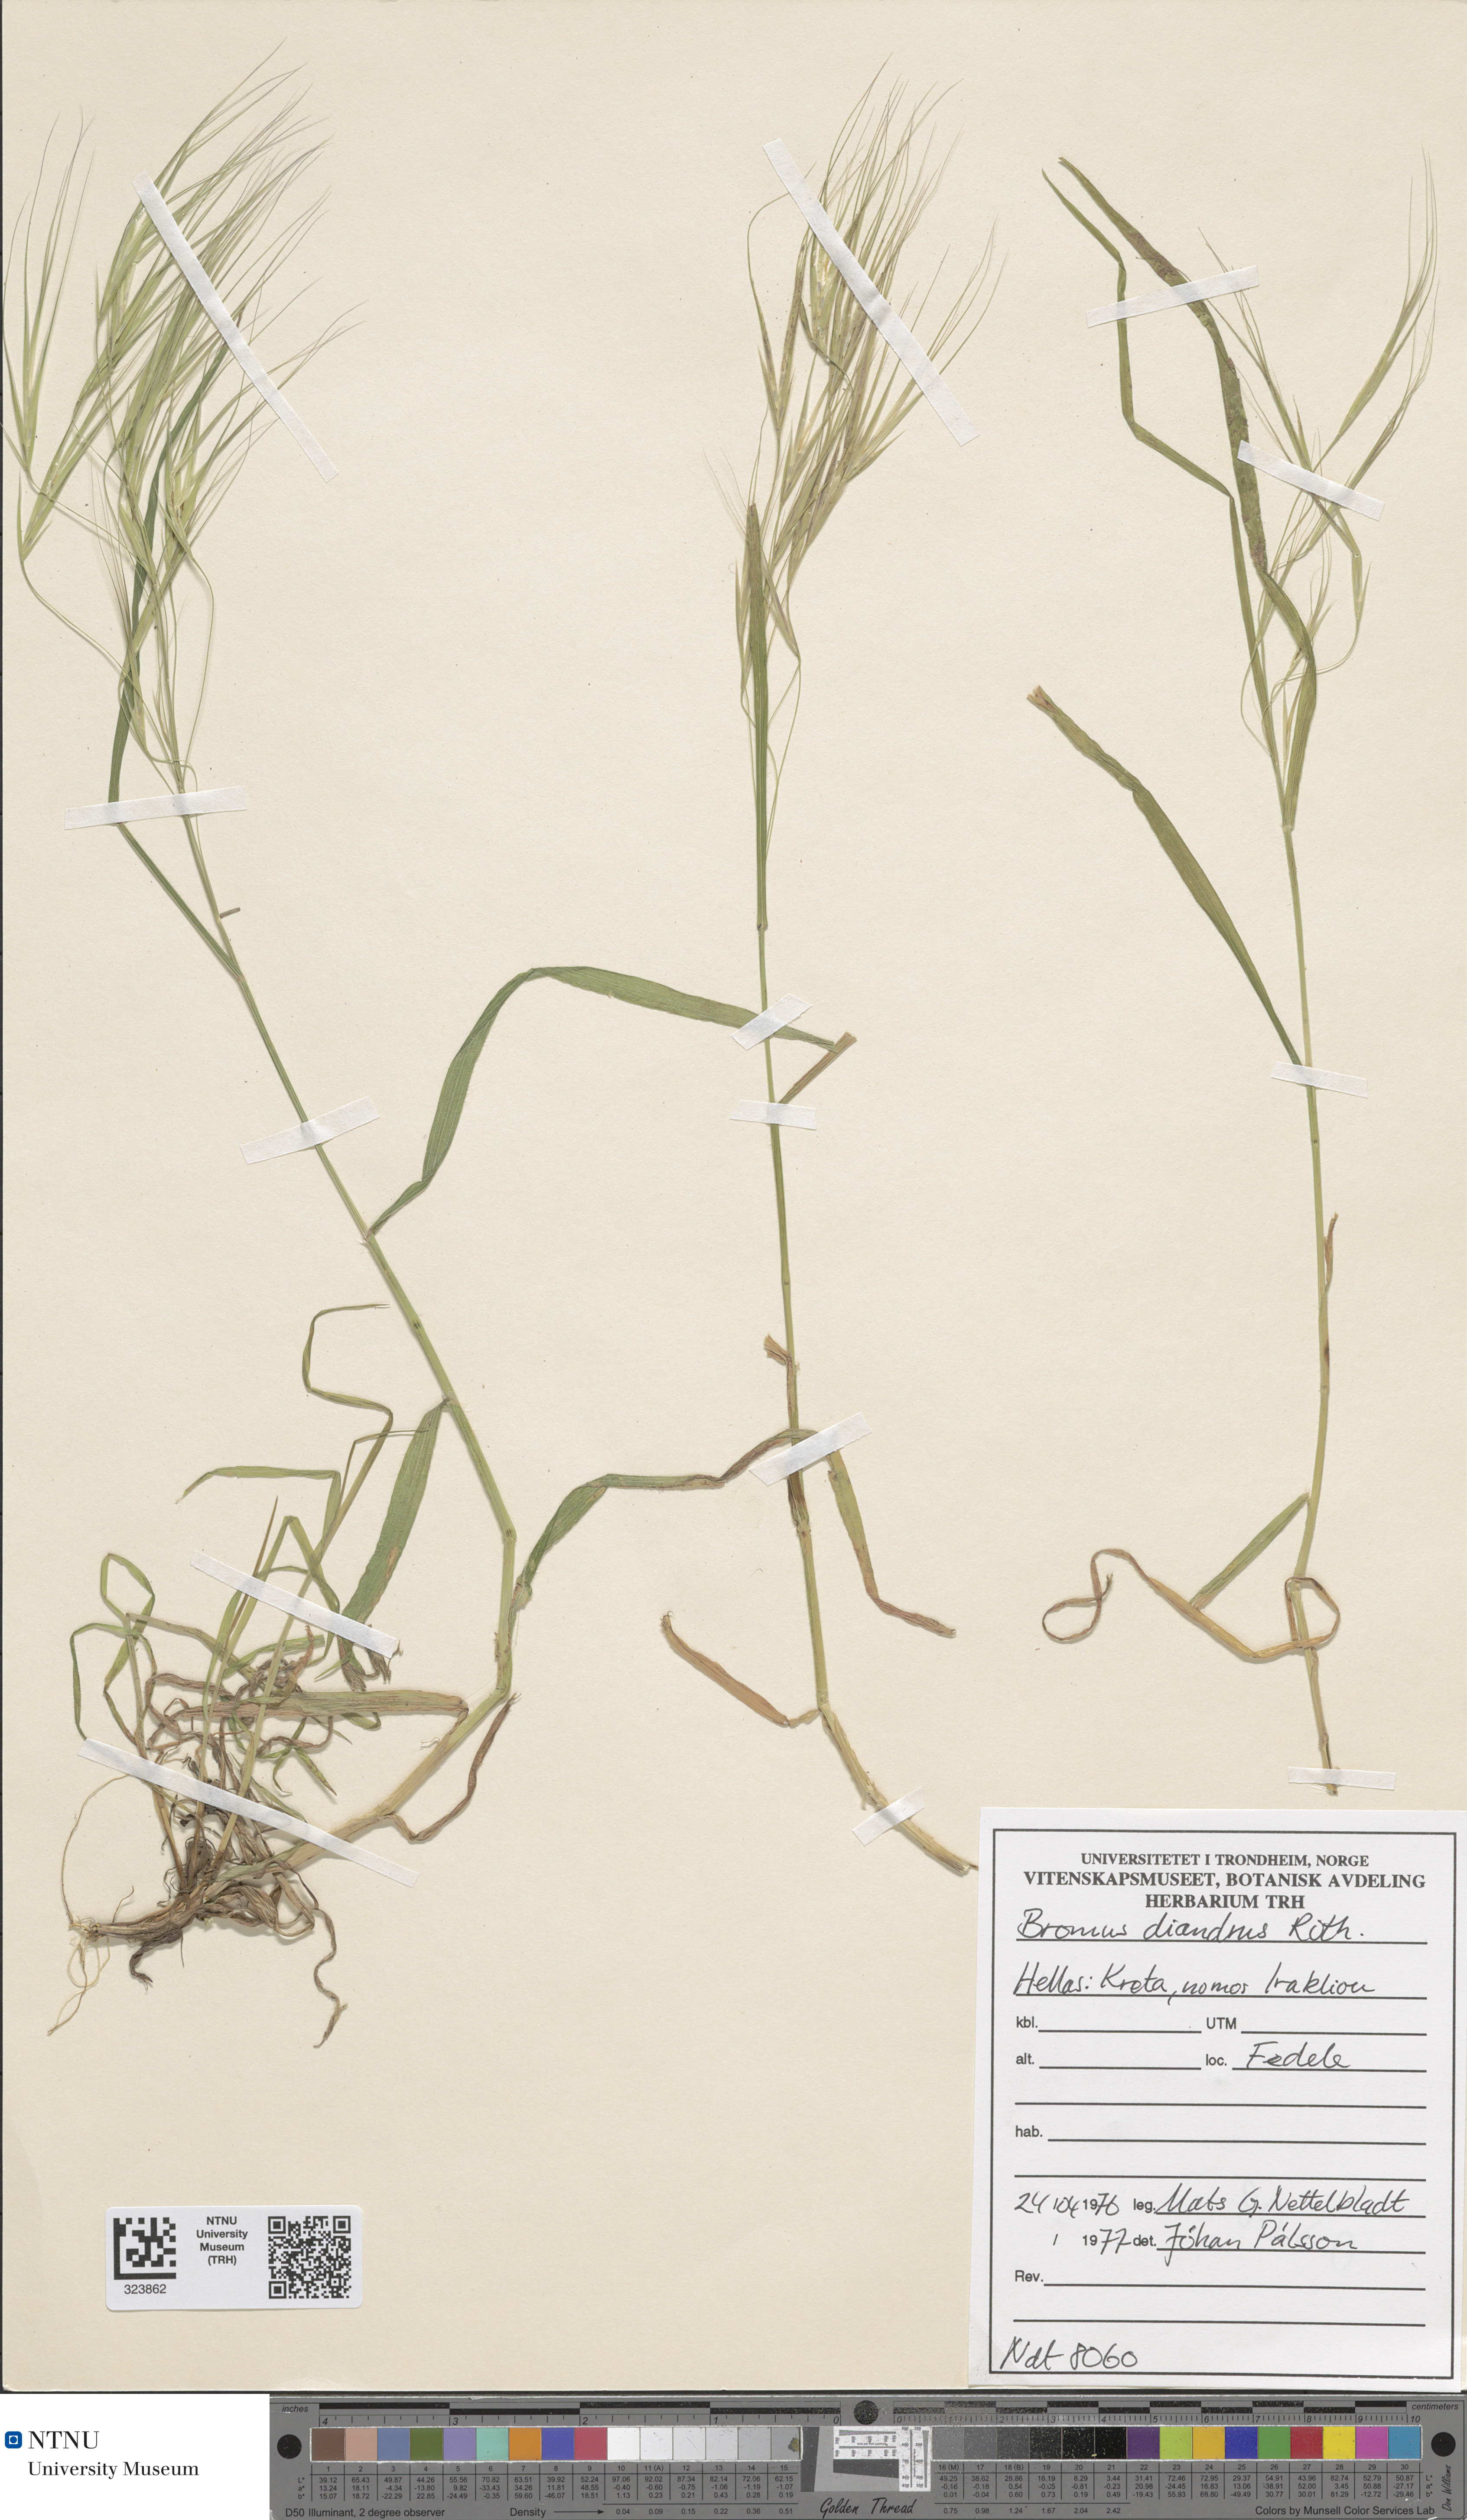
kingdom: Plantae
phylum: Tracheophyta
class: Liliopsida
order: Poales
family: Poaceae
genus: Bromus
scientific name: Bromus diandrus
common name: Ripgut brome
